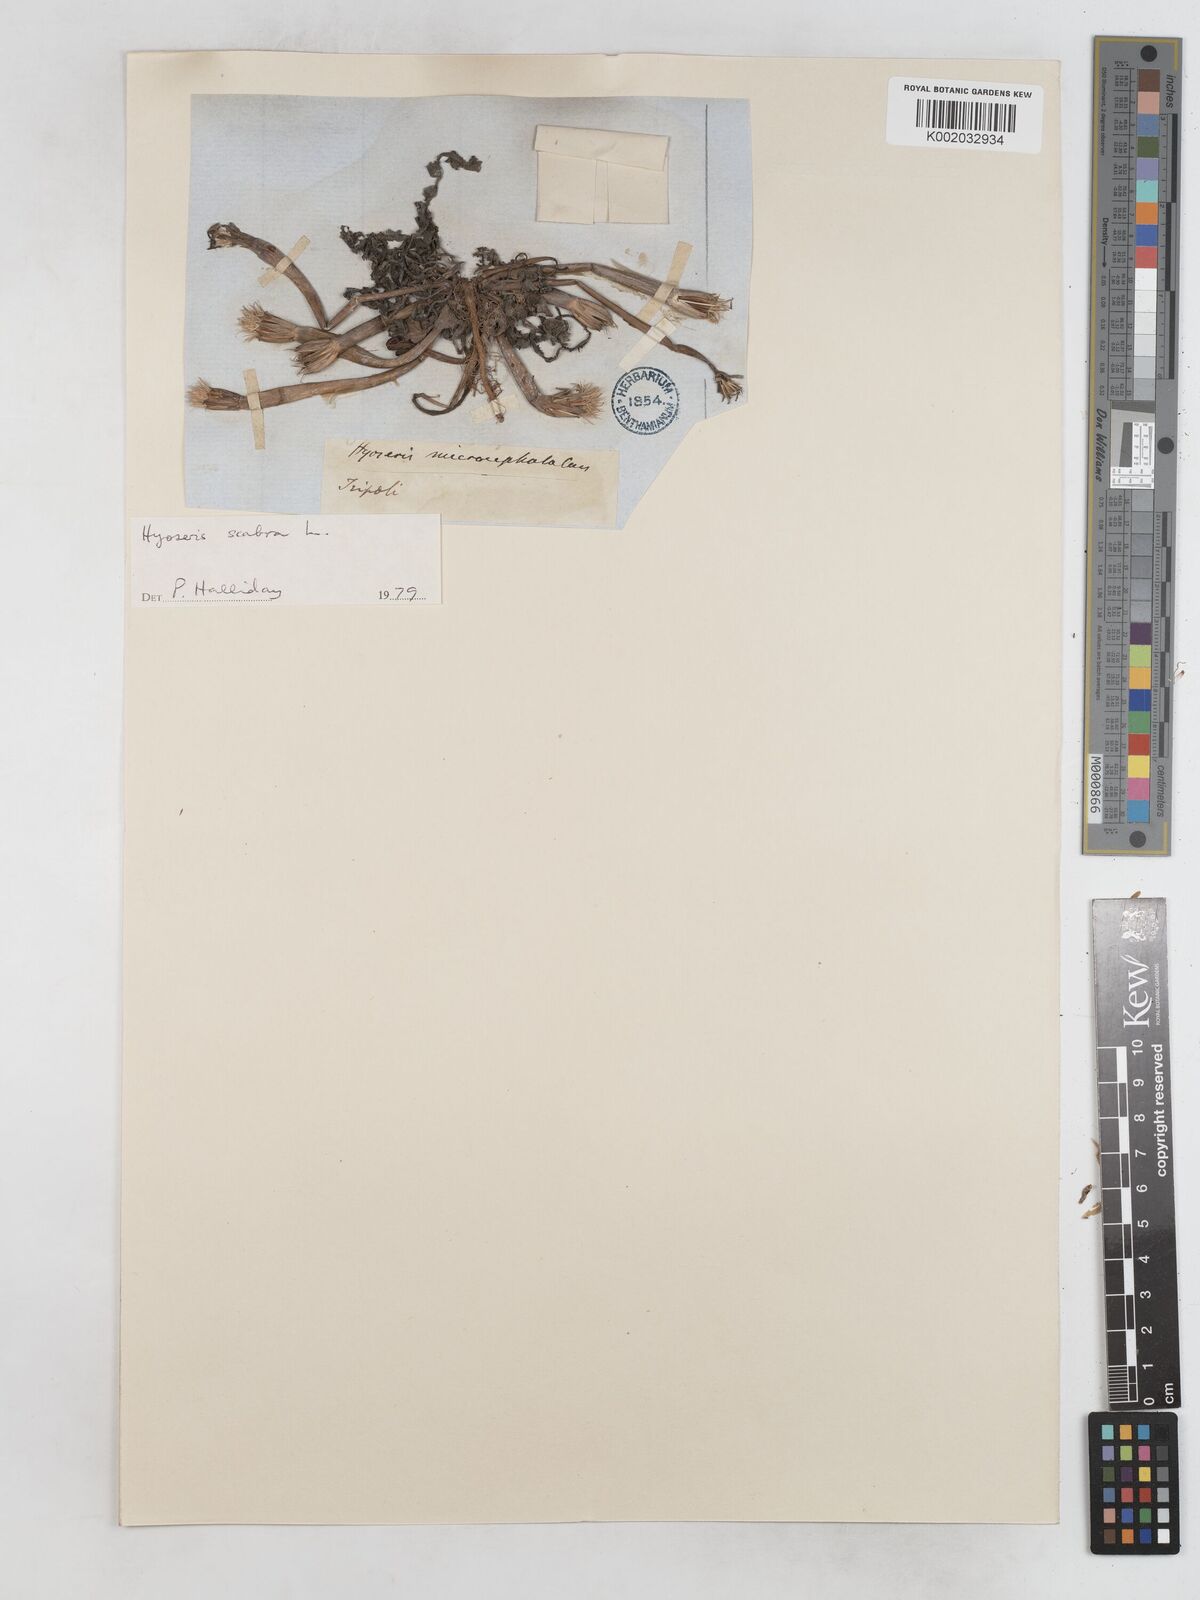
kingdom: Plantae
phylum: Tracheophyta
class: Magnoliopsida
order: Asterales
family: Asteraceae
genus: Hyoseris
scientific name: Hyoseris scabra
